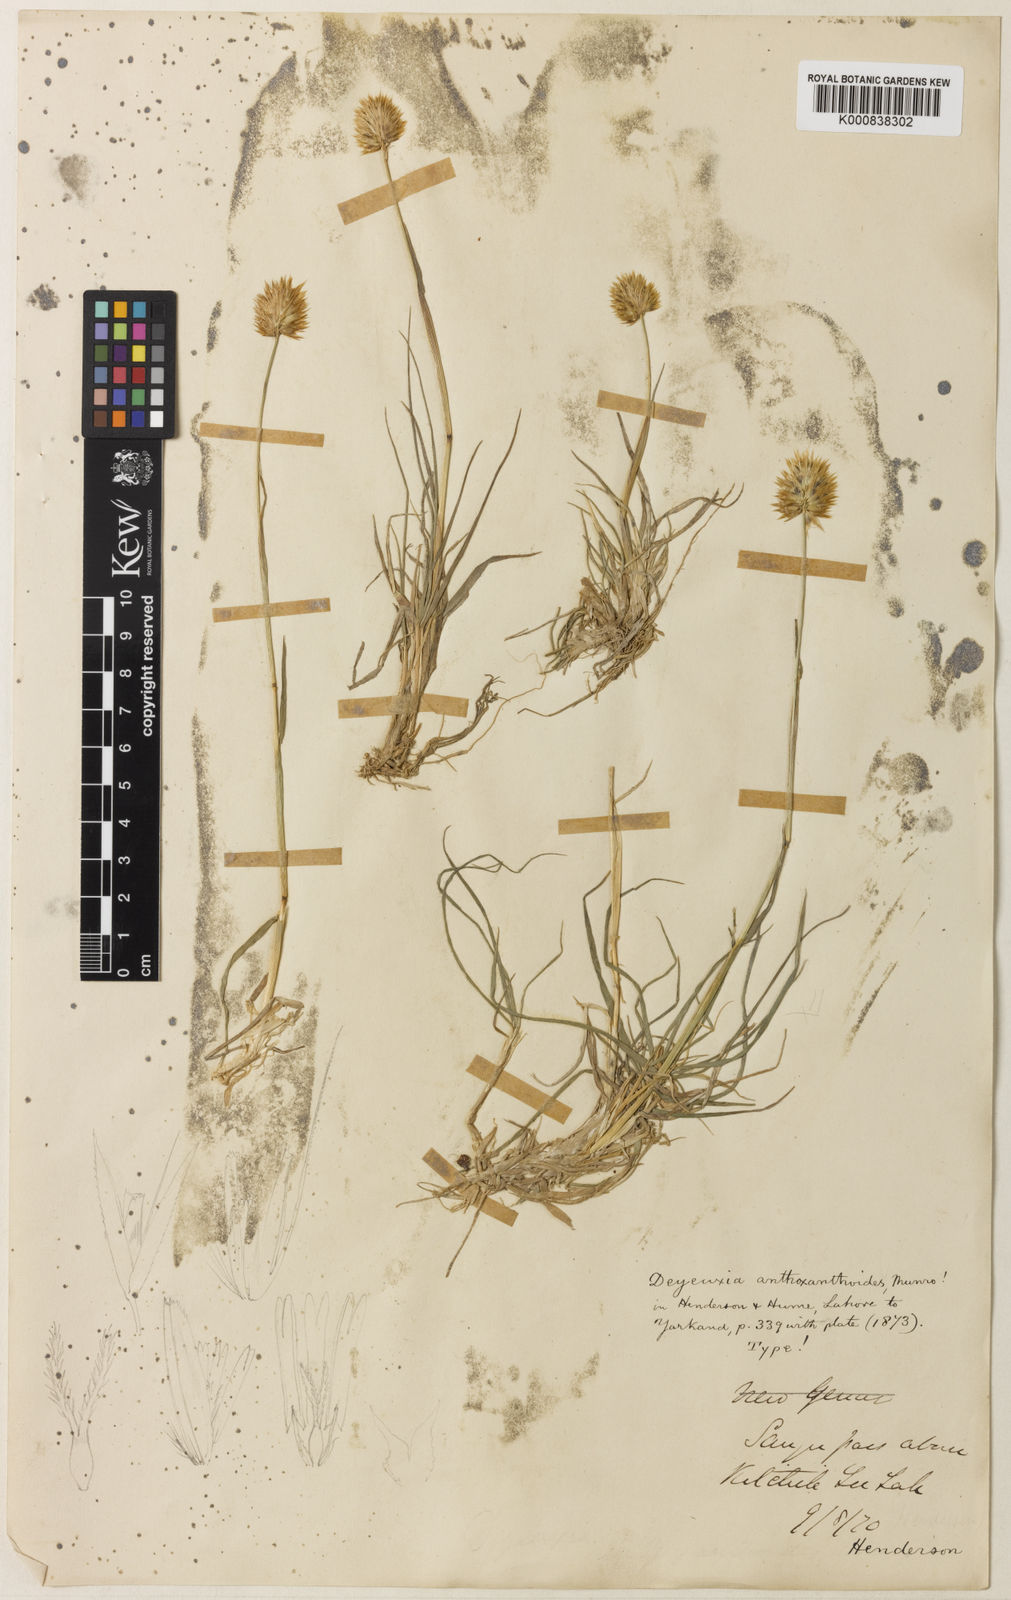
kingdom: Plantae
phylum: Tracheophyta
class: Liliopsida
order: Poales
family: Poaceae
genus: Calamagrostis
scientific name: Calamagrostis anthoxanthoides
